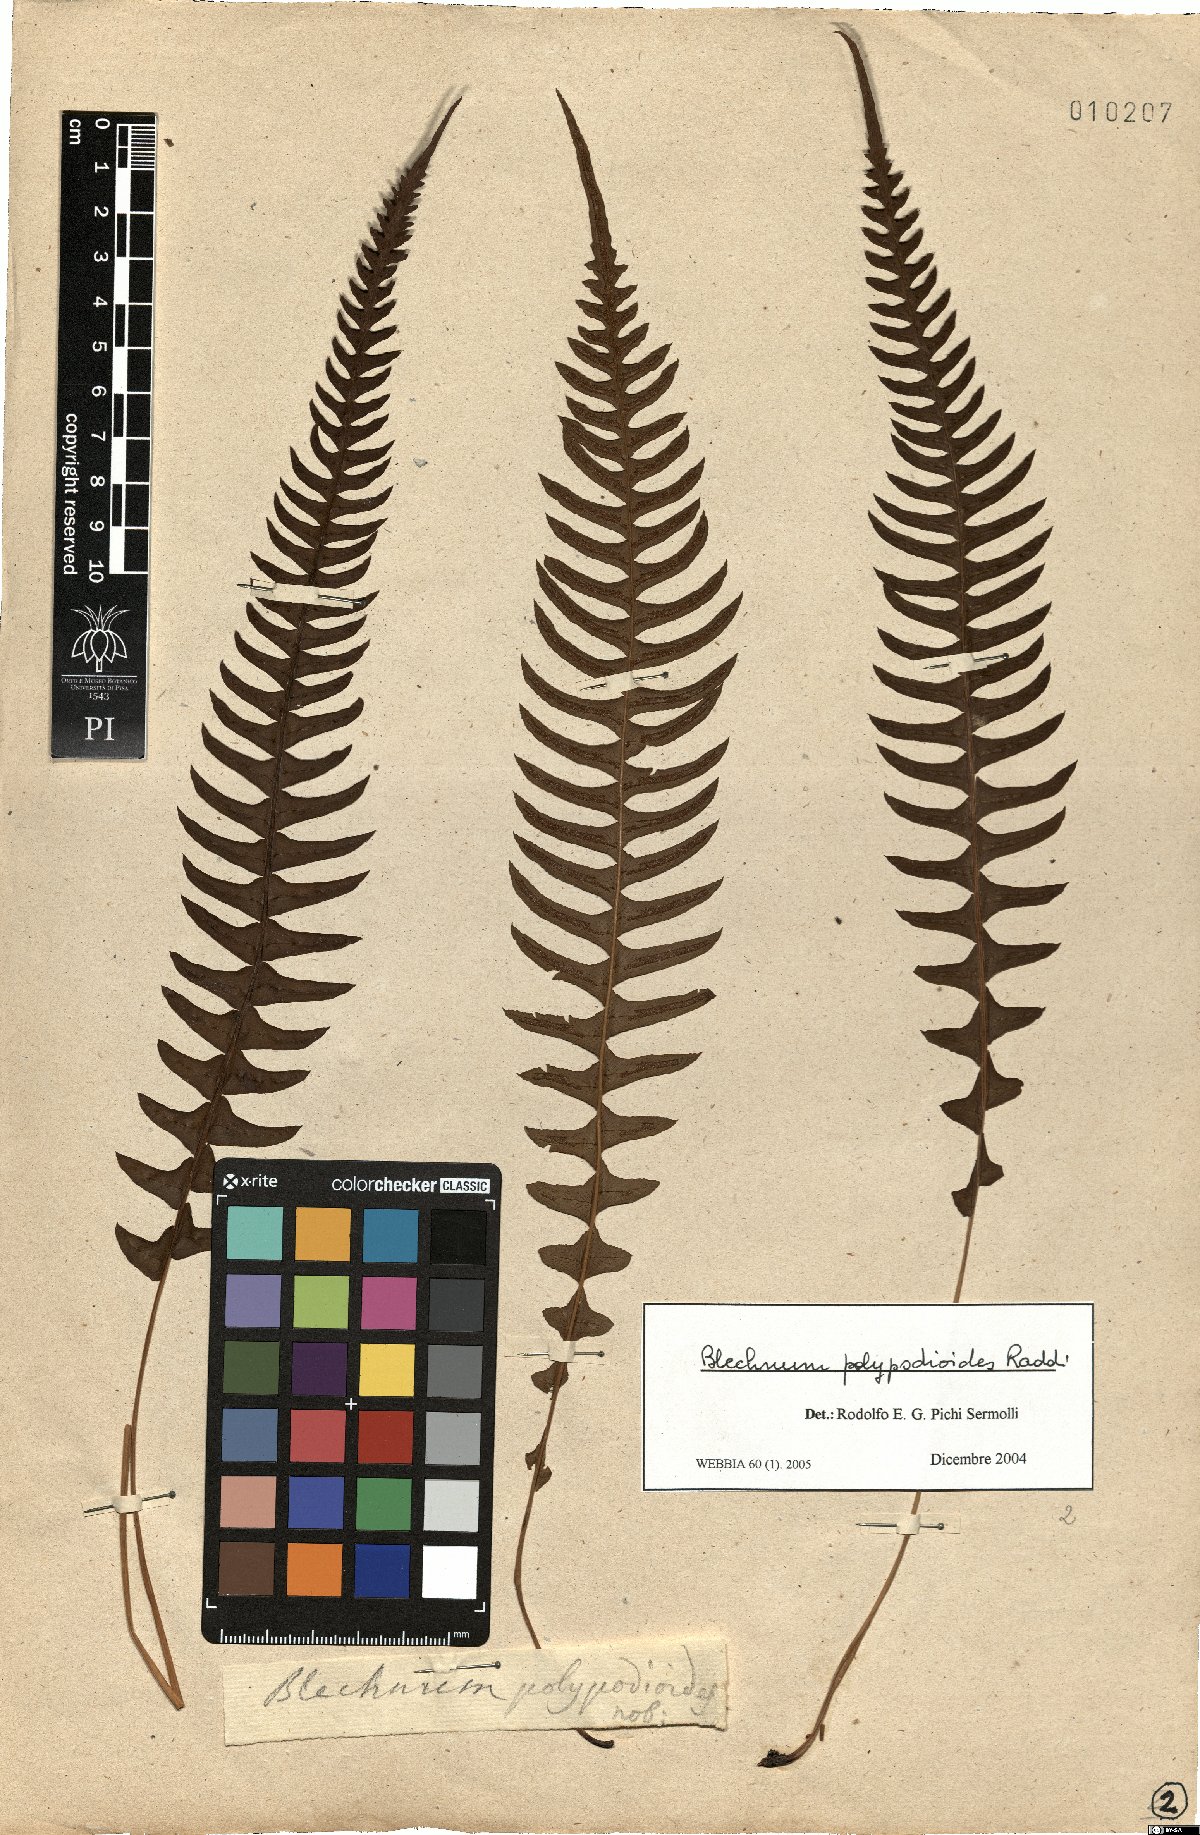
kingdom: Plantae
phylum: Tracheophyta
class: Polypodiopsida
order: Polypodiales
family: Blechnaceae
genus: Blechnum
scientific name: Blechnum polypodioides
